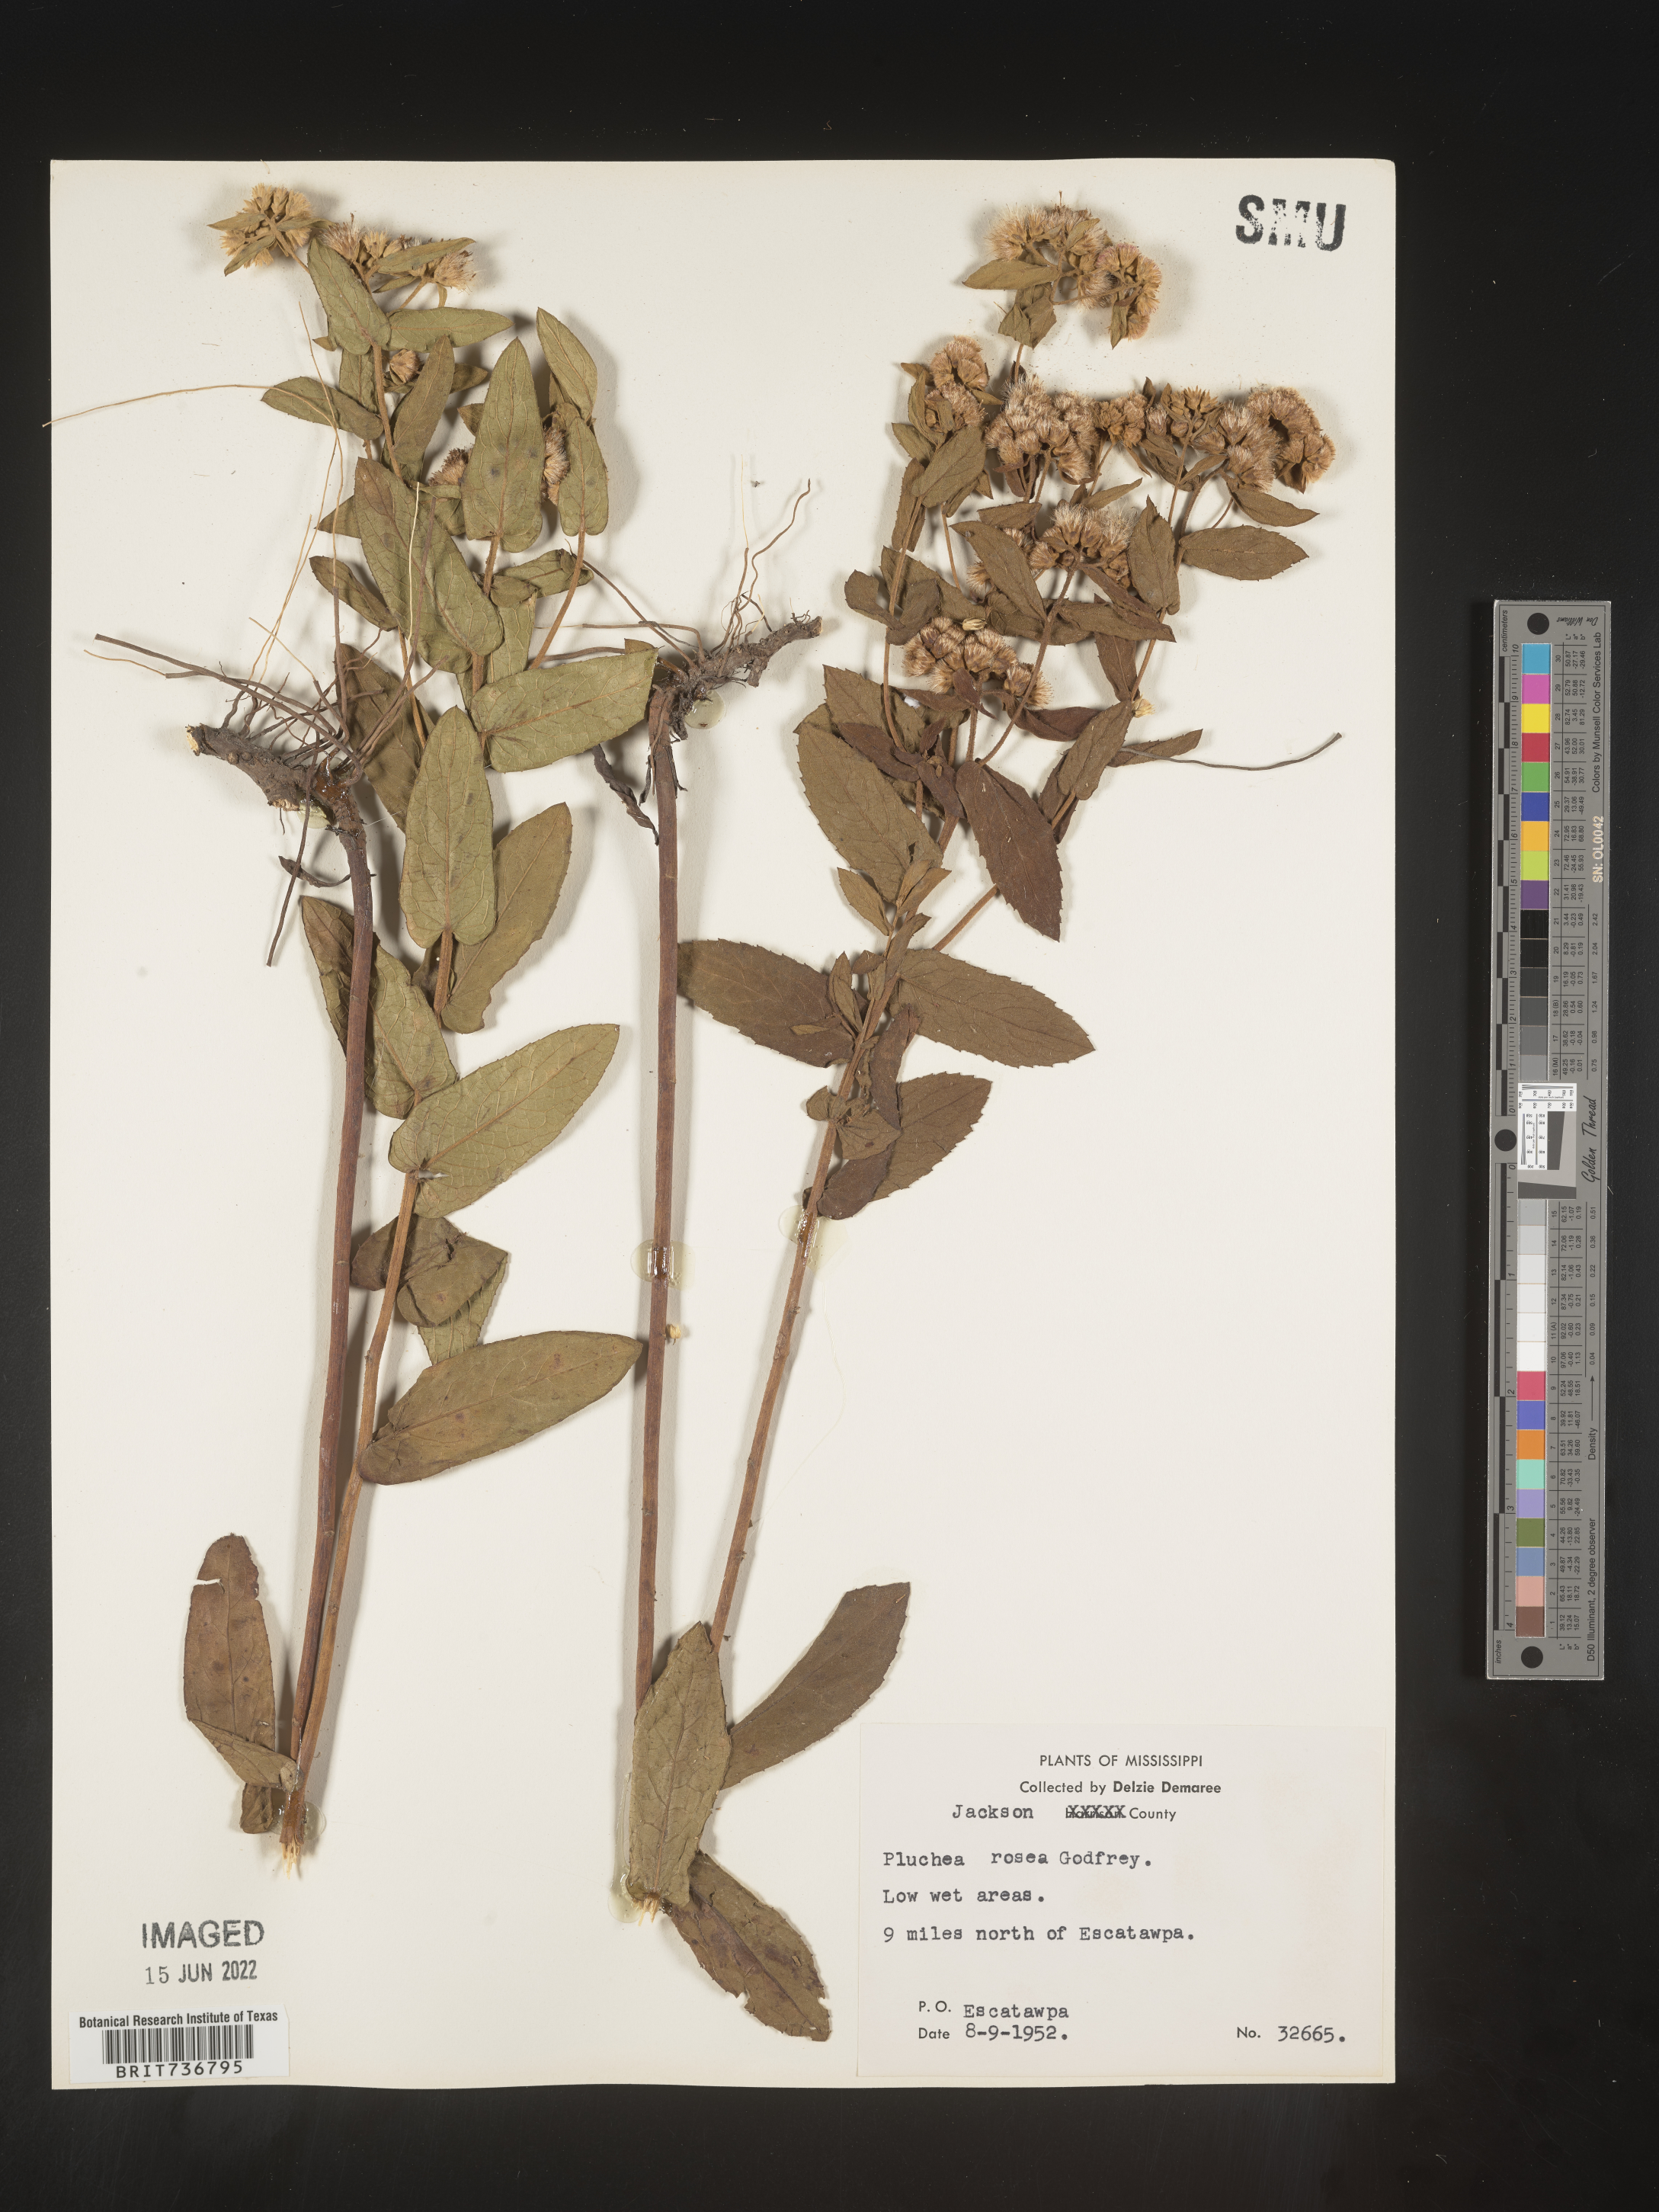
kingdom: Plantae
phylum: Tracheophyta
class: Magnoliopsida
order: Asterales
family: Asteraceae
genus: Pluchea
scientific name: Pluchea baccharis
